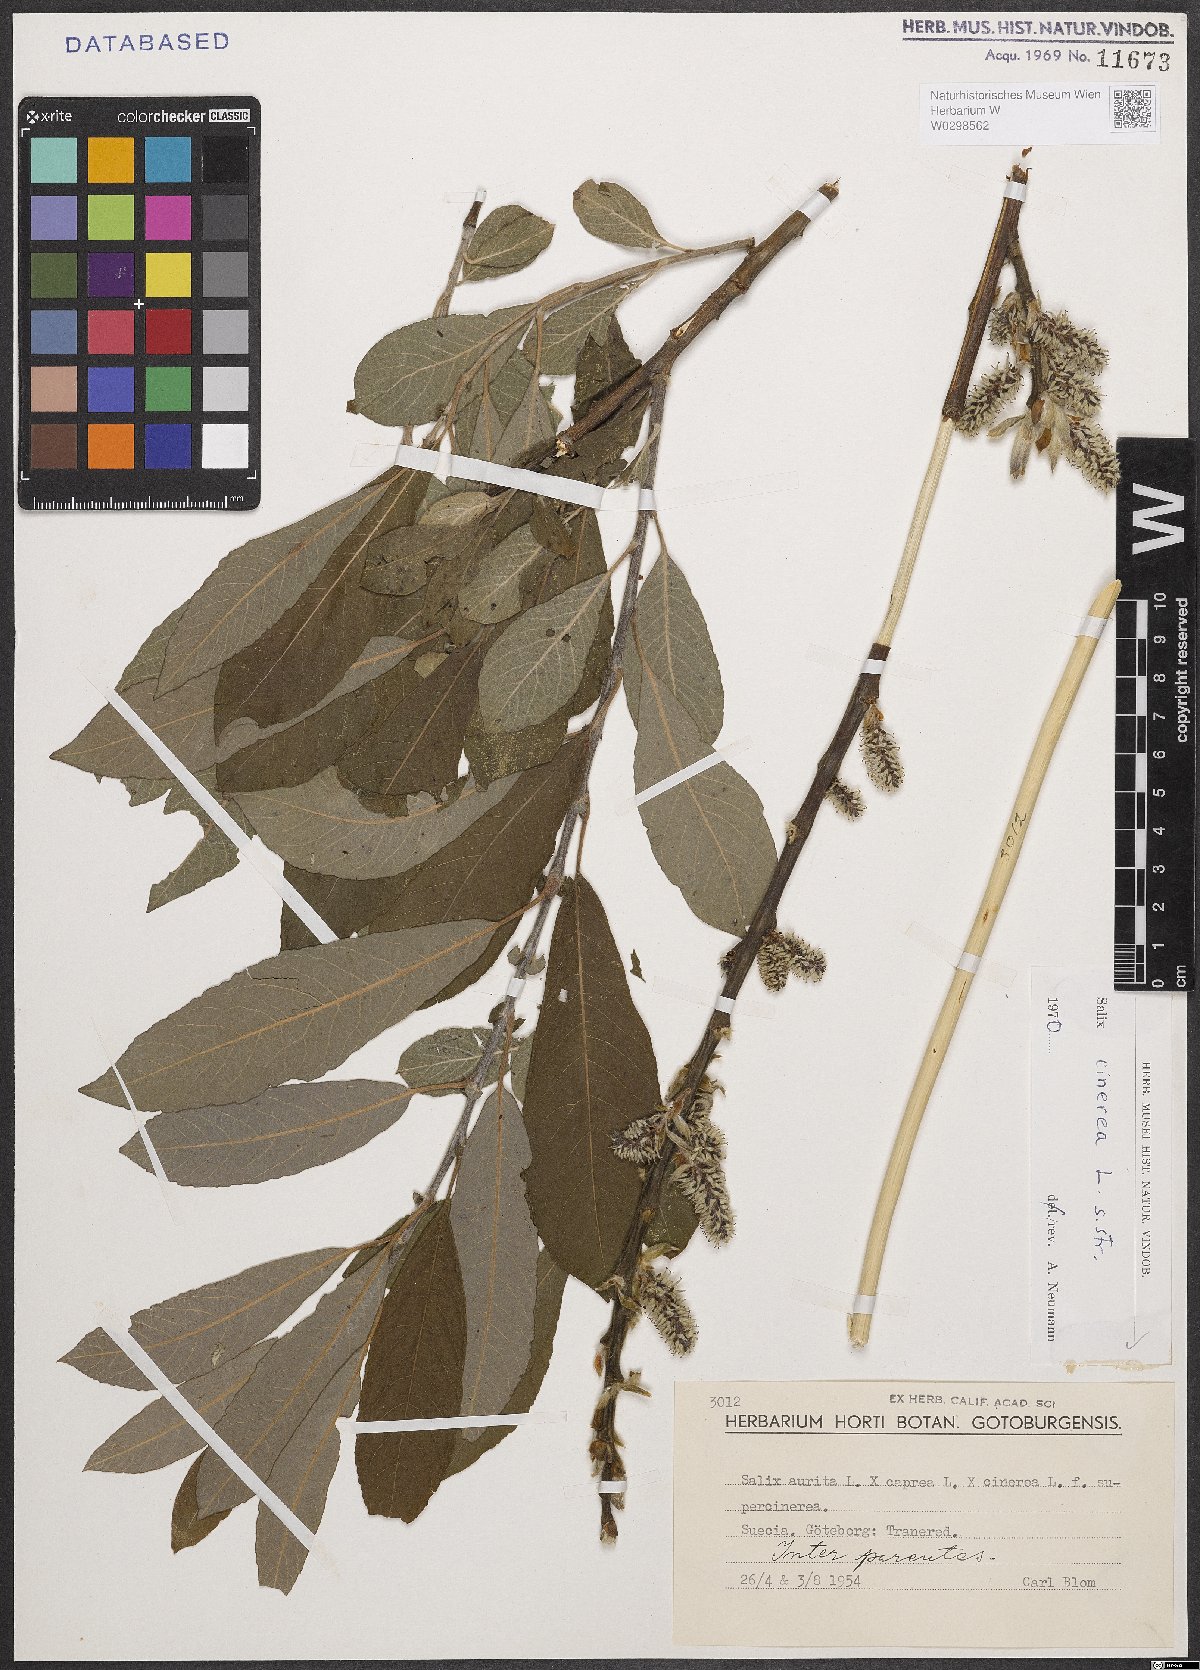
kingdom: Plantae
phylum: Tracheophyta
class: Magnoliopsida
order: Malpighiales
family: Salicaceae
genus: Salix
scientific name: Salix cinerea
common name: Common sallow
